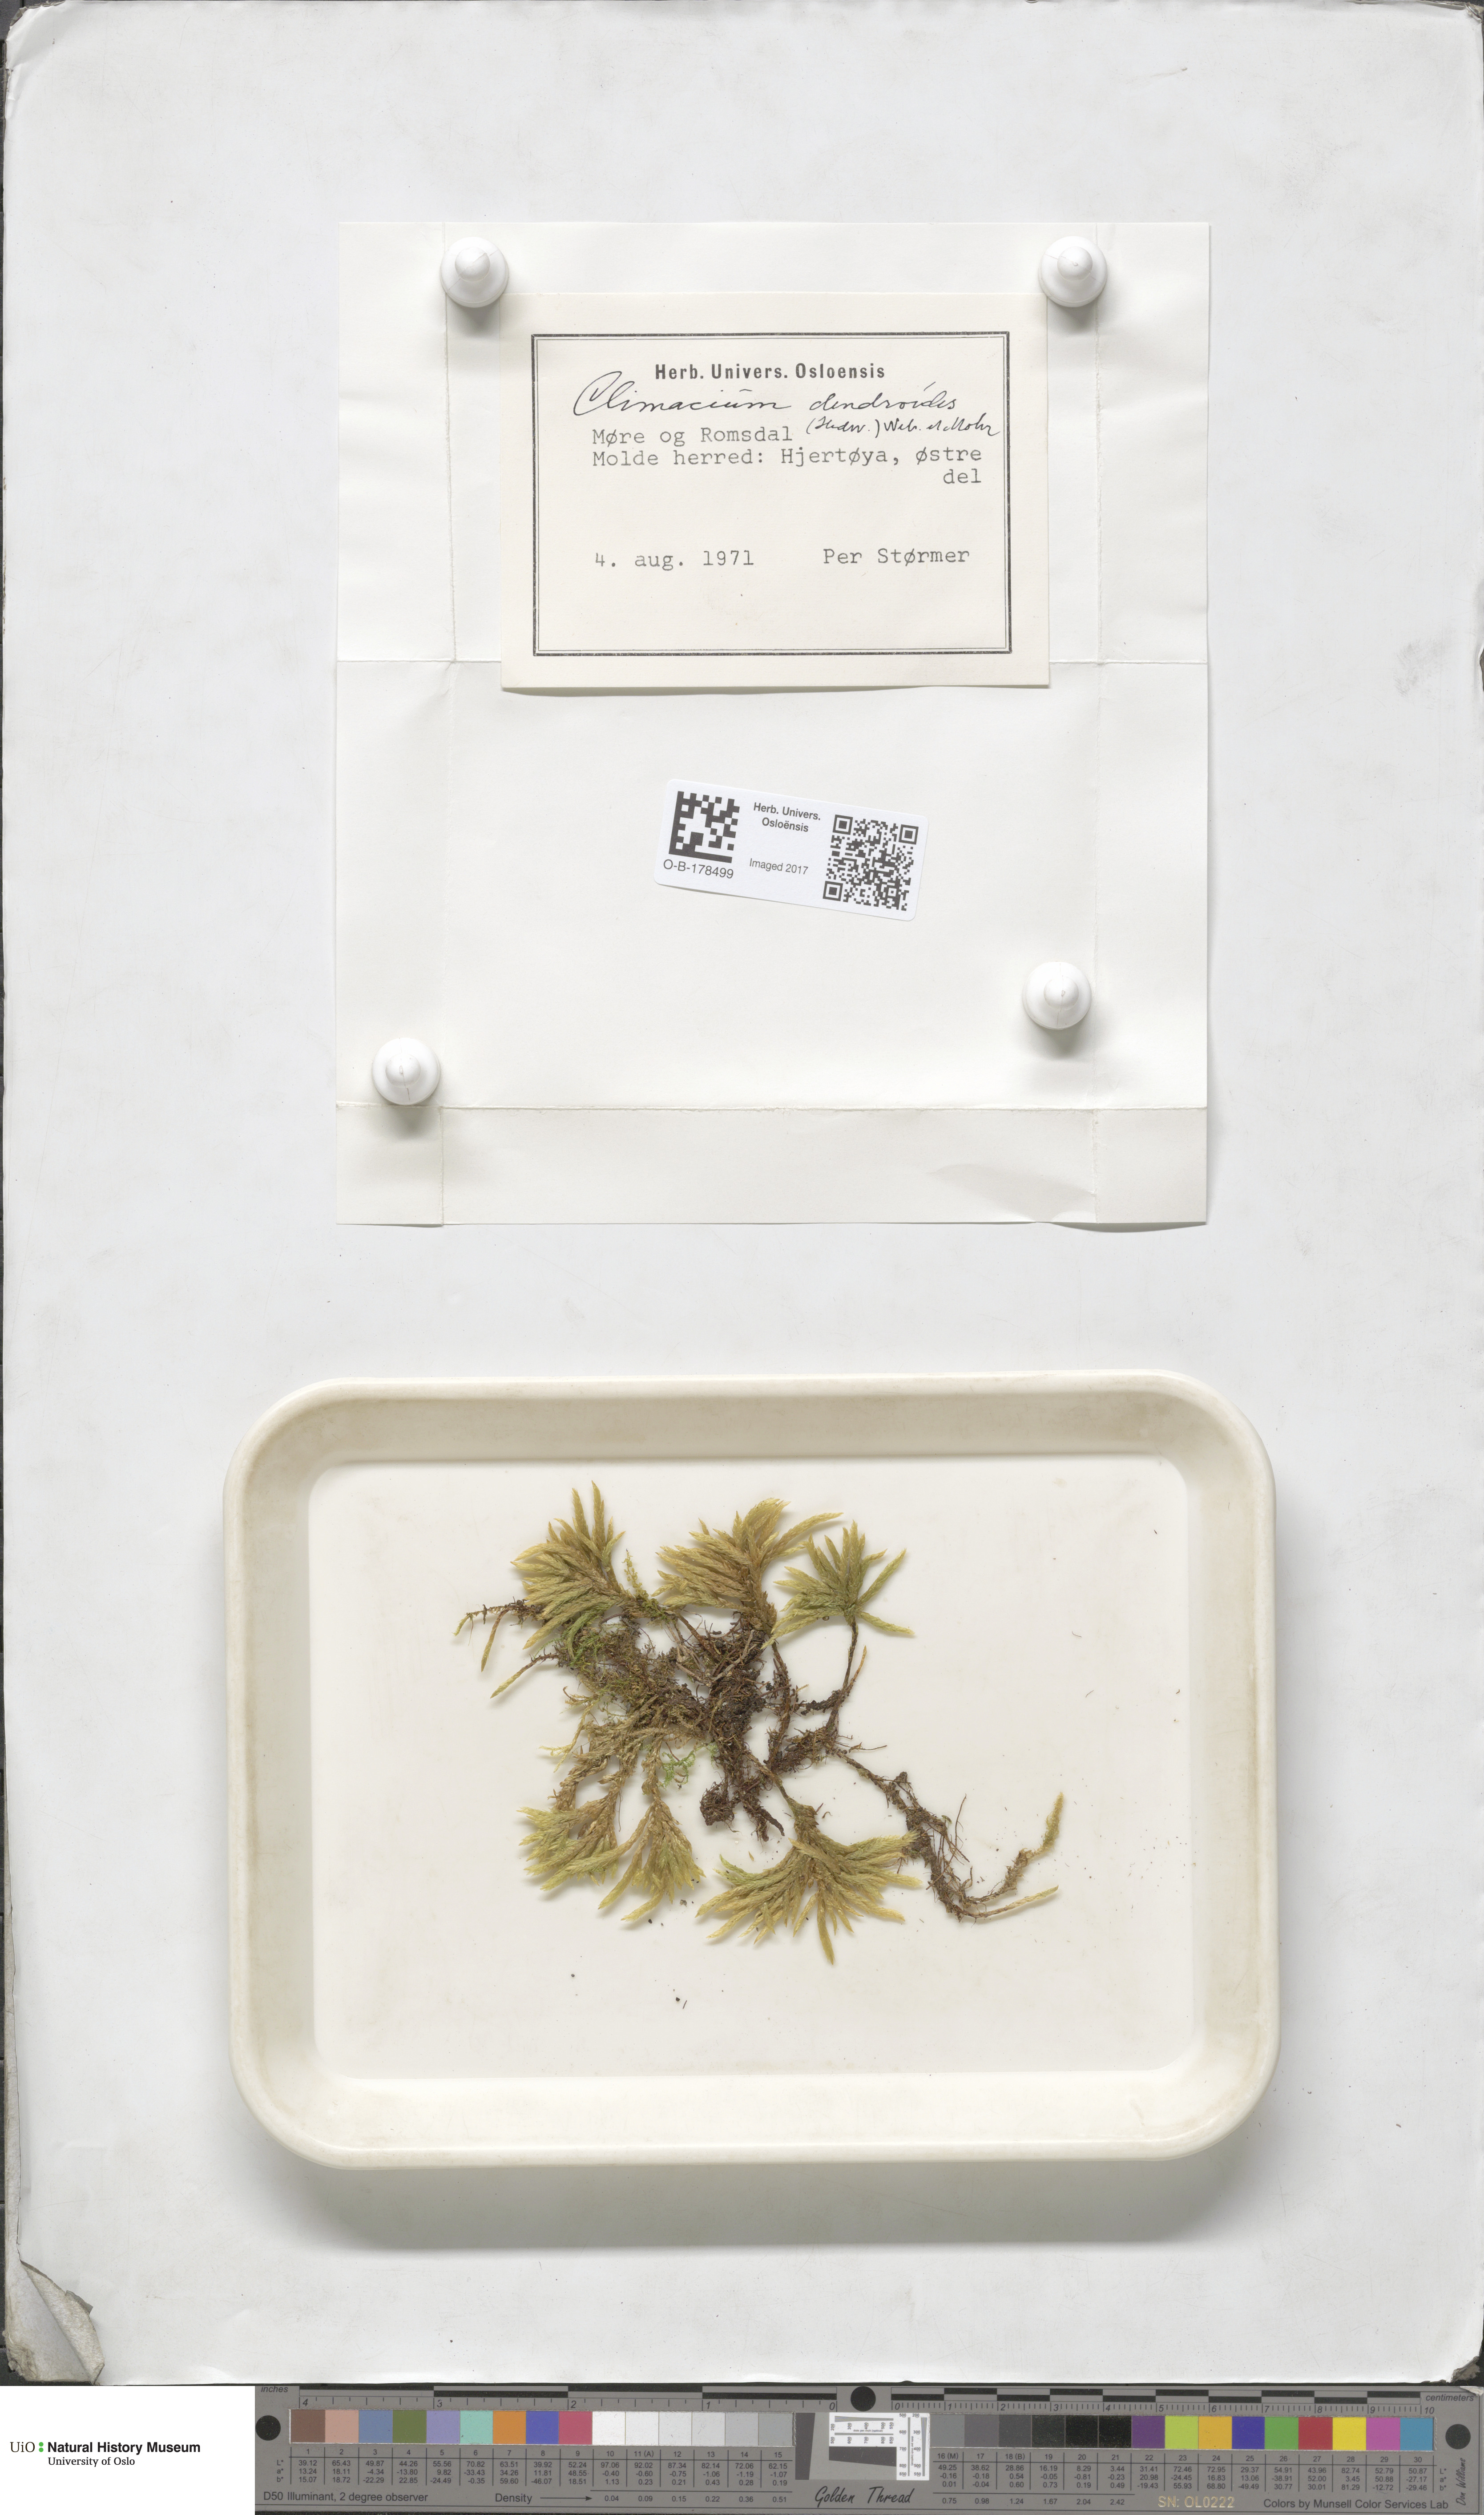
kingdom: Plantae
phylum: Bryophyta
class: Bryopsida
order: Hypnales
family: Climaciaceae
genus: Climacium
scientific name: Climacium dendroides
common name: Northern tree moss
